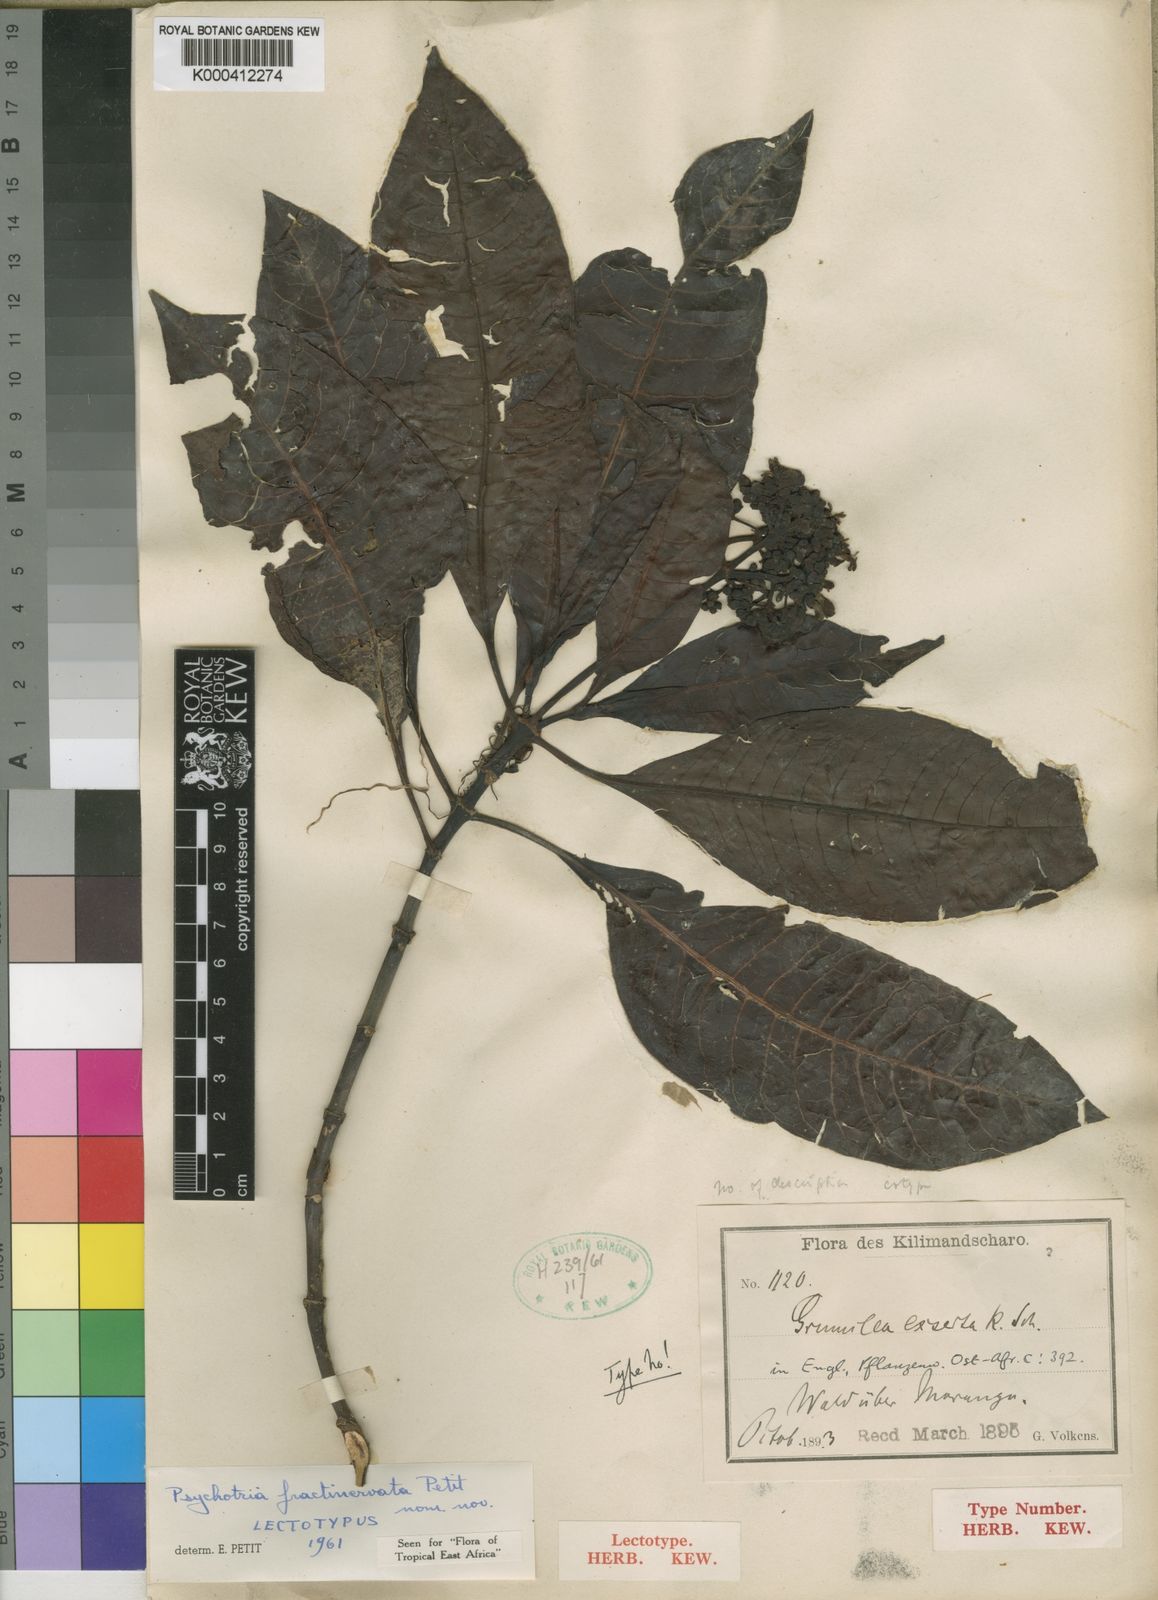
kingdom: Plantae
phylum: Tracheophyta
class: Magnoliopsida
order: Gentianales
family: Rubiaceae
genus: Psychotria
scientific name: Psychotria fractinervata
